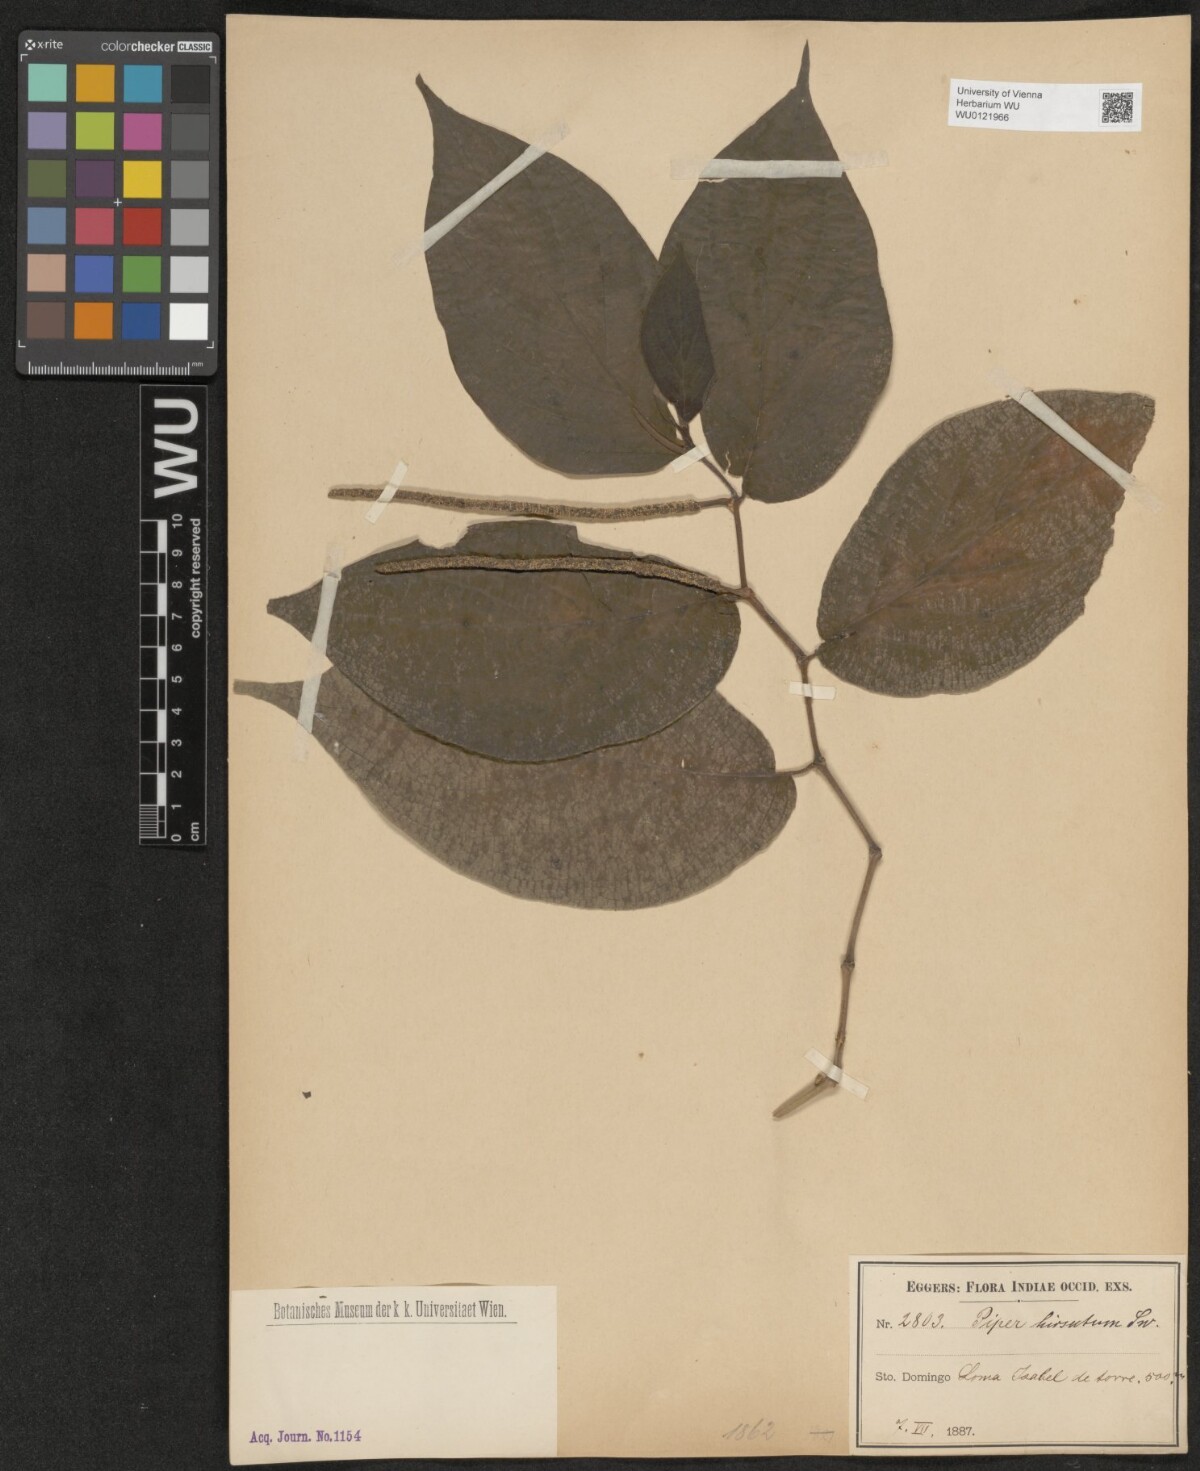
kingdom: Plantae
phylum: Tracheophyta
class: Magnoliopsida
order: Piperales
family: Piperaceae
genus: Piper
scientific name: Piper hispidum
